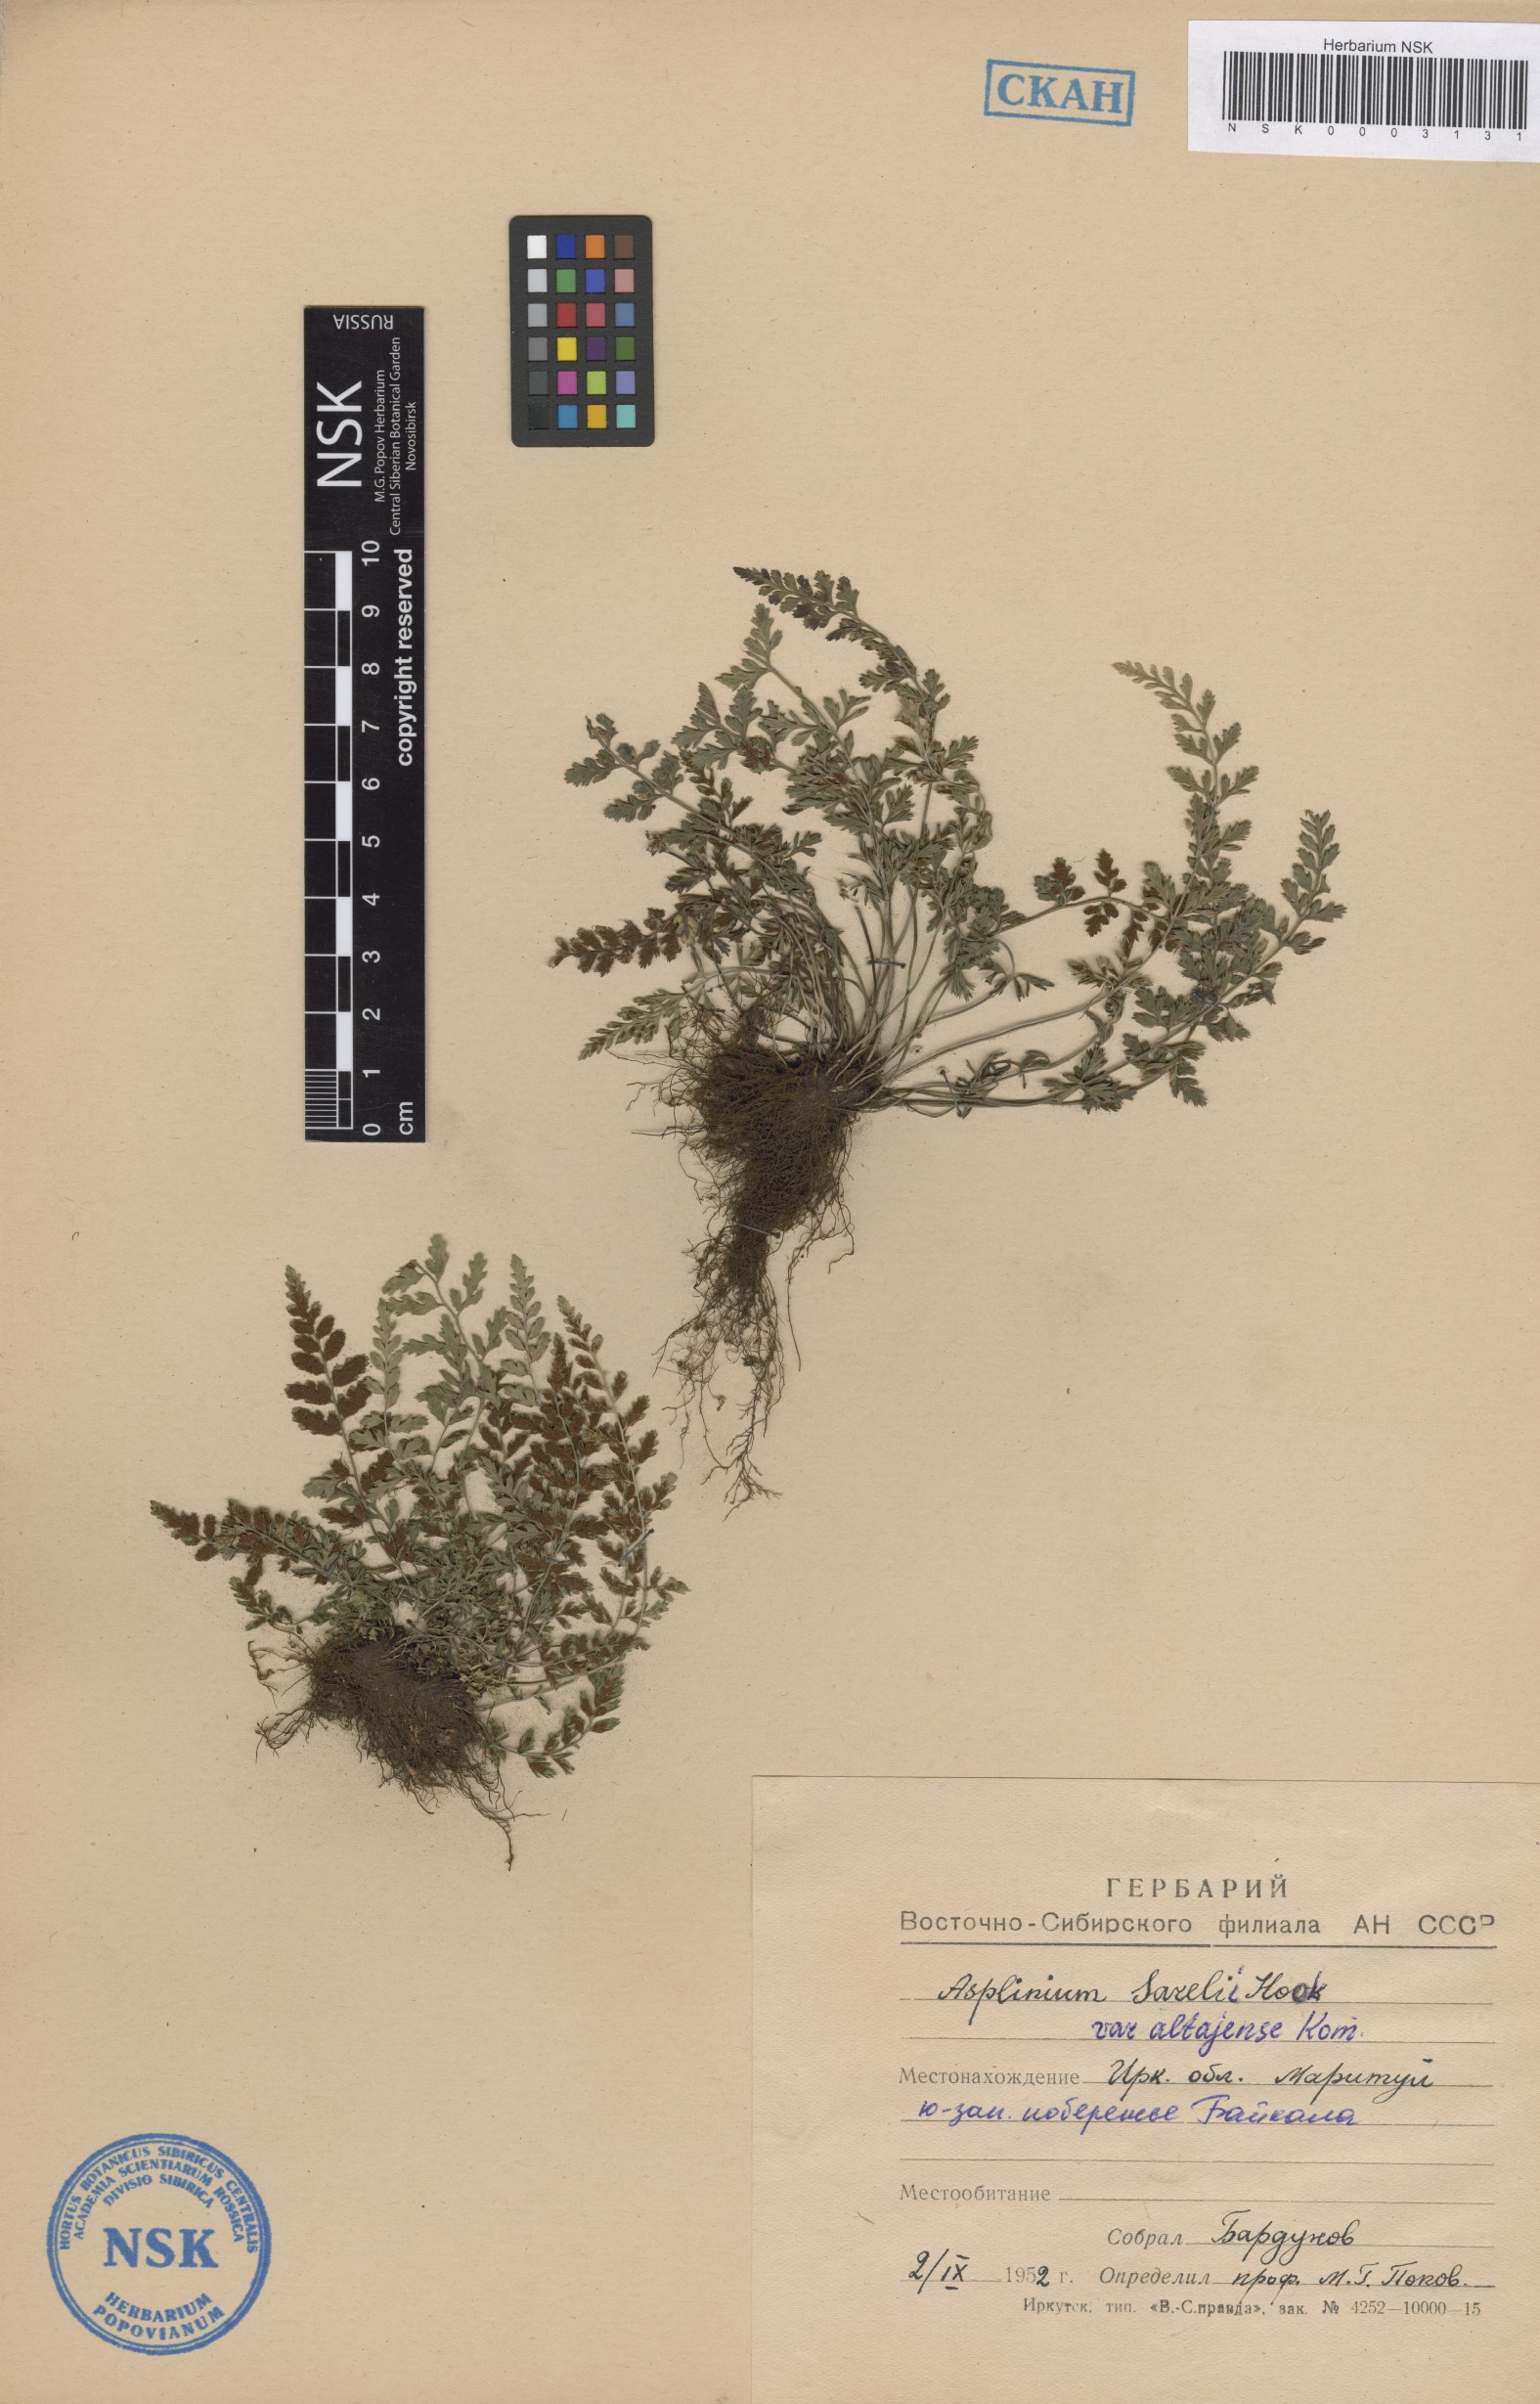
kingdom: Plantae
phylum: Tracheophyta
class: Polypodiopsida
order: Polypodiales
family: Aspleniaceae
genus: Asplenium
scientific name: Asplenium altajense
